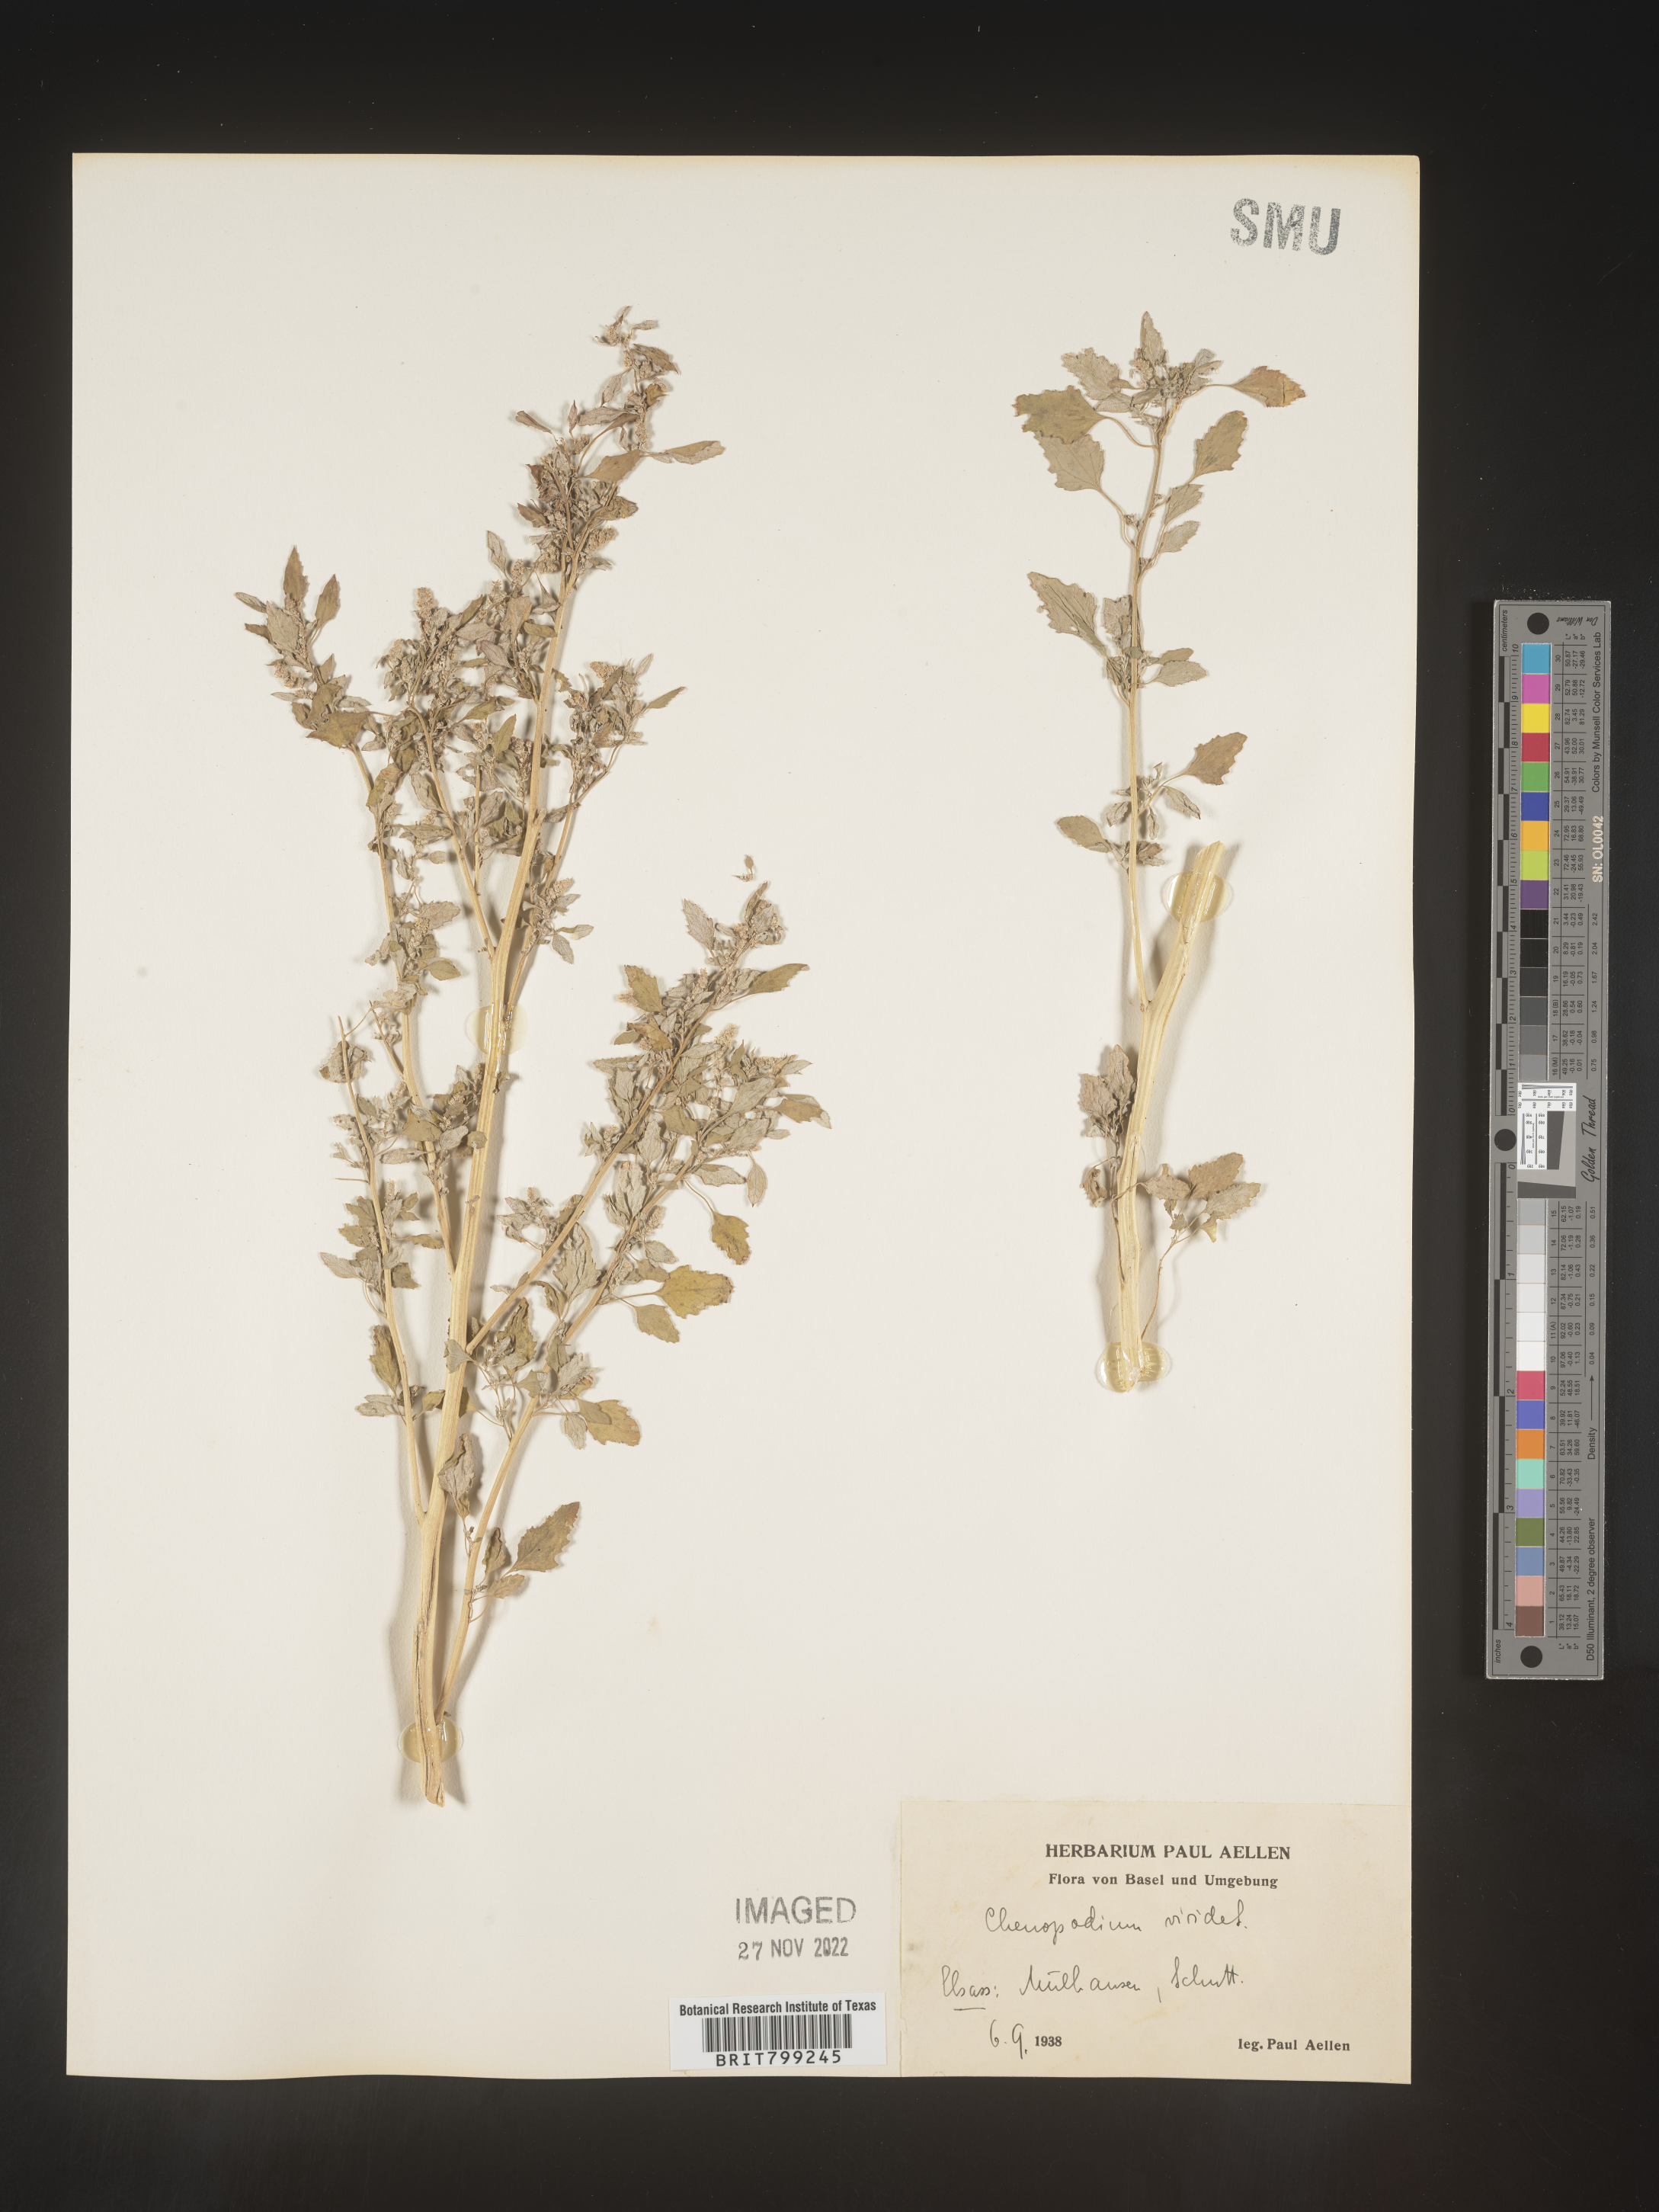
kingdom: Plantae
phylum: Tracheophyta
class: Magnoliopsida
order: Caryophyllales
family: Amaranthaceae
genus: Chenopodium
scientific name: Chenopodium
